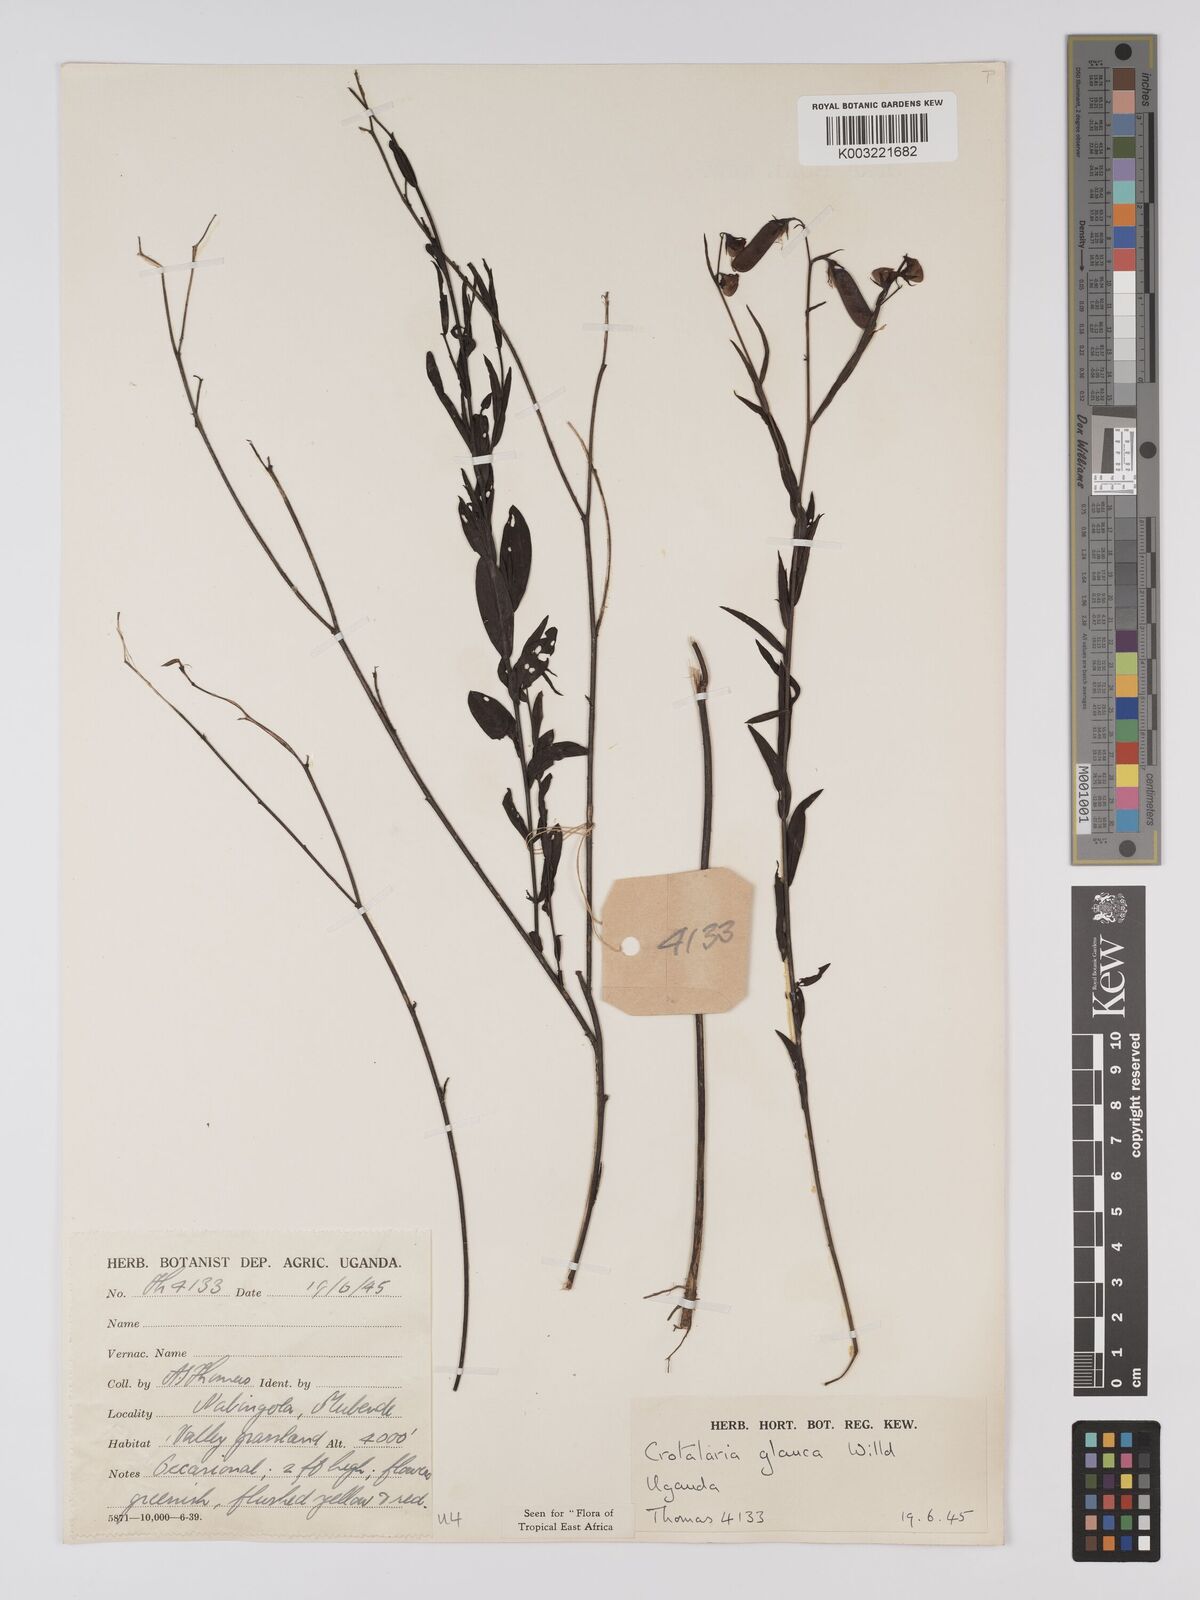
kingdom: Plantae
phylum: Tracheophyta
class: Magnoliopsida
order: Fabales
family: Fabaceae
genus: Crotalaria
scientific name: Crotalaria glauca
